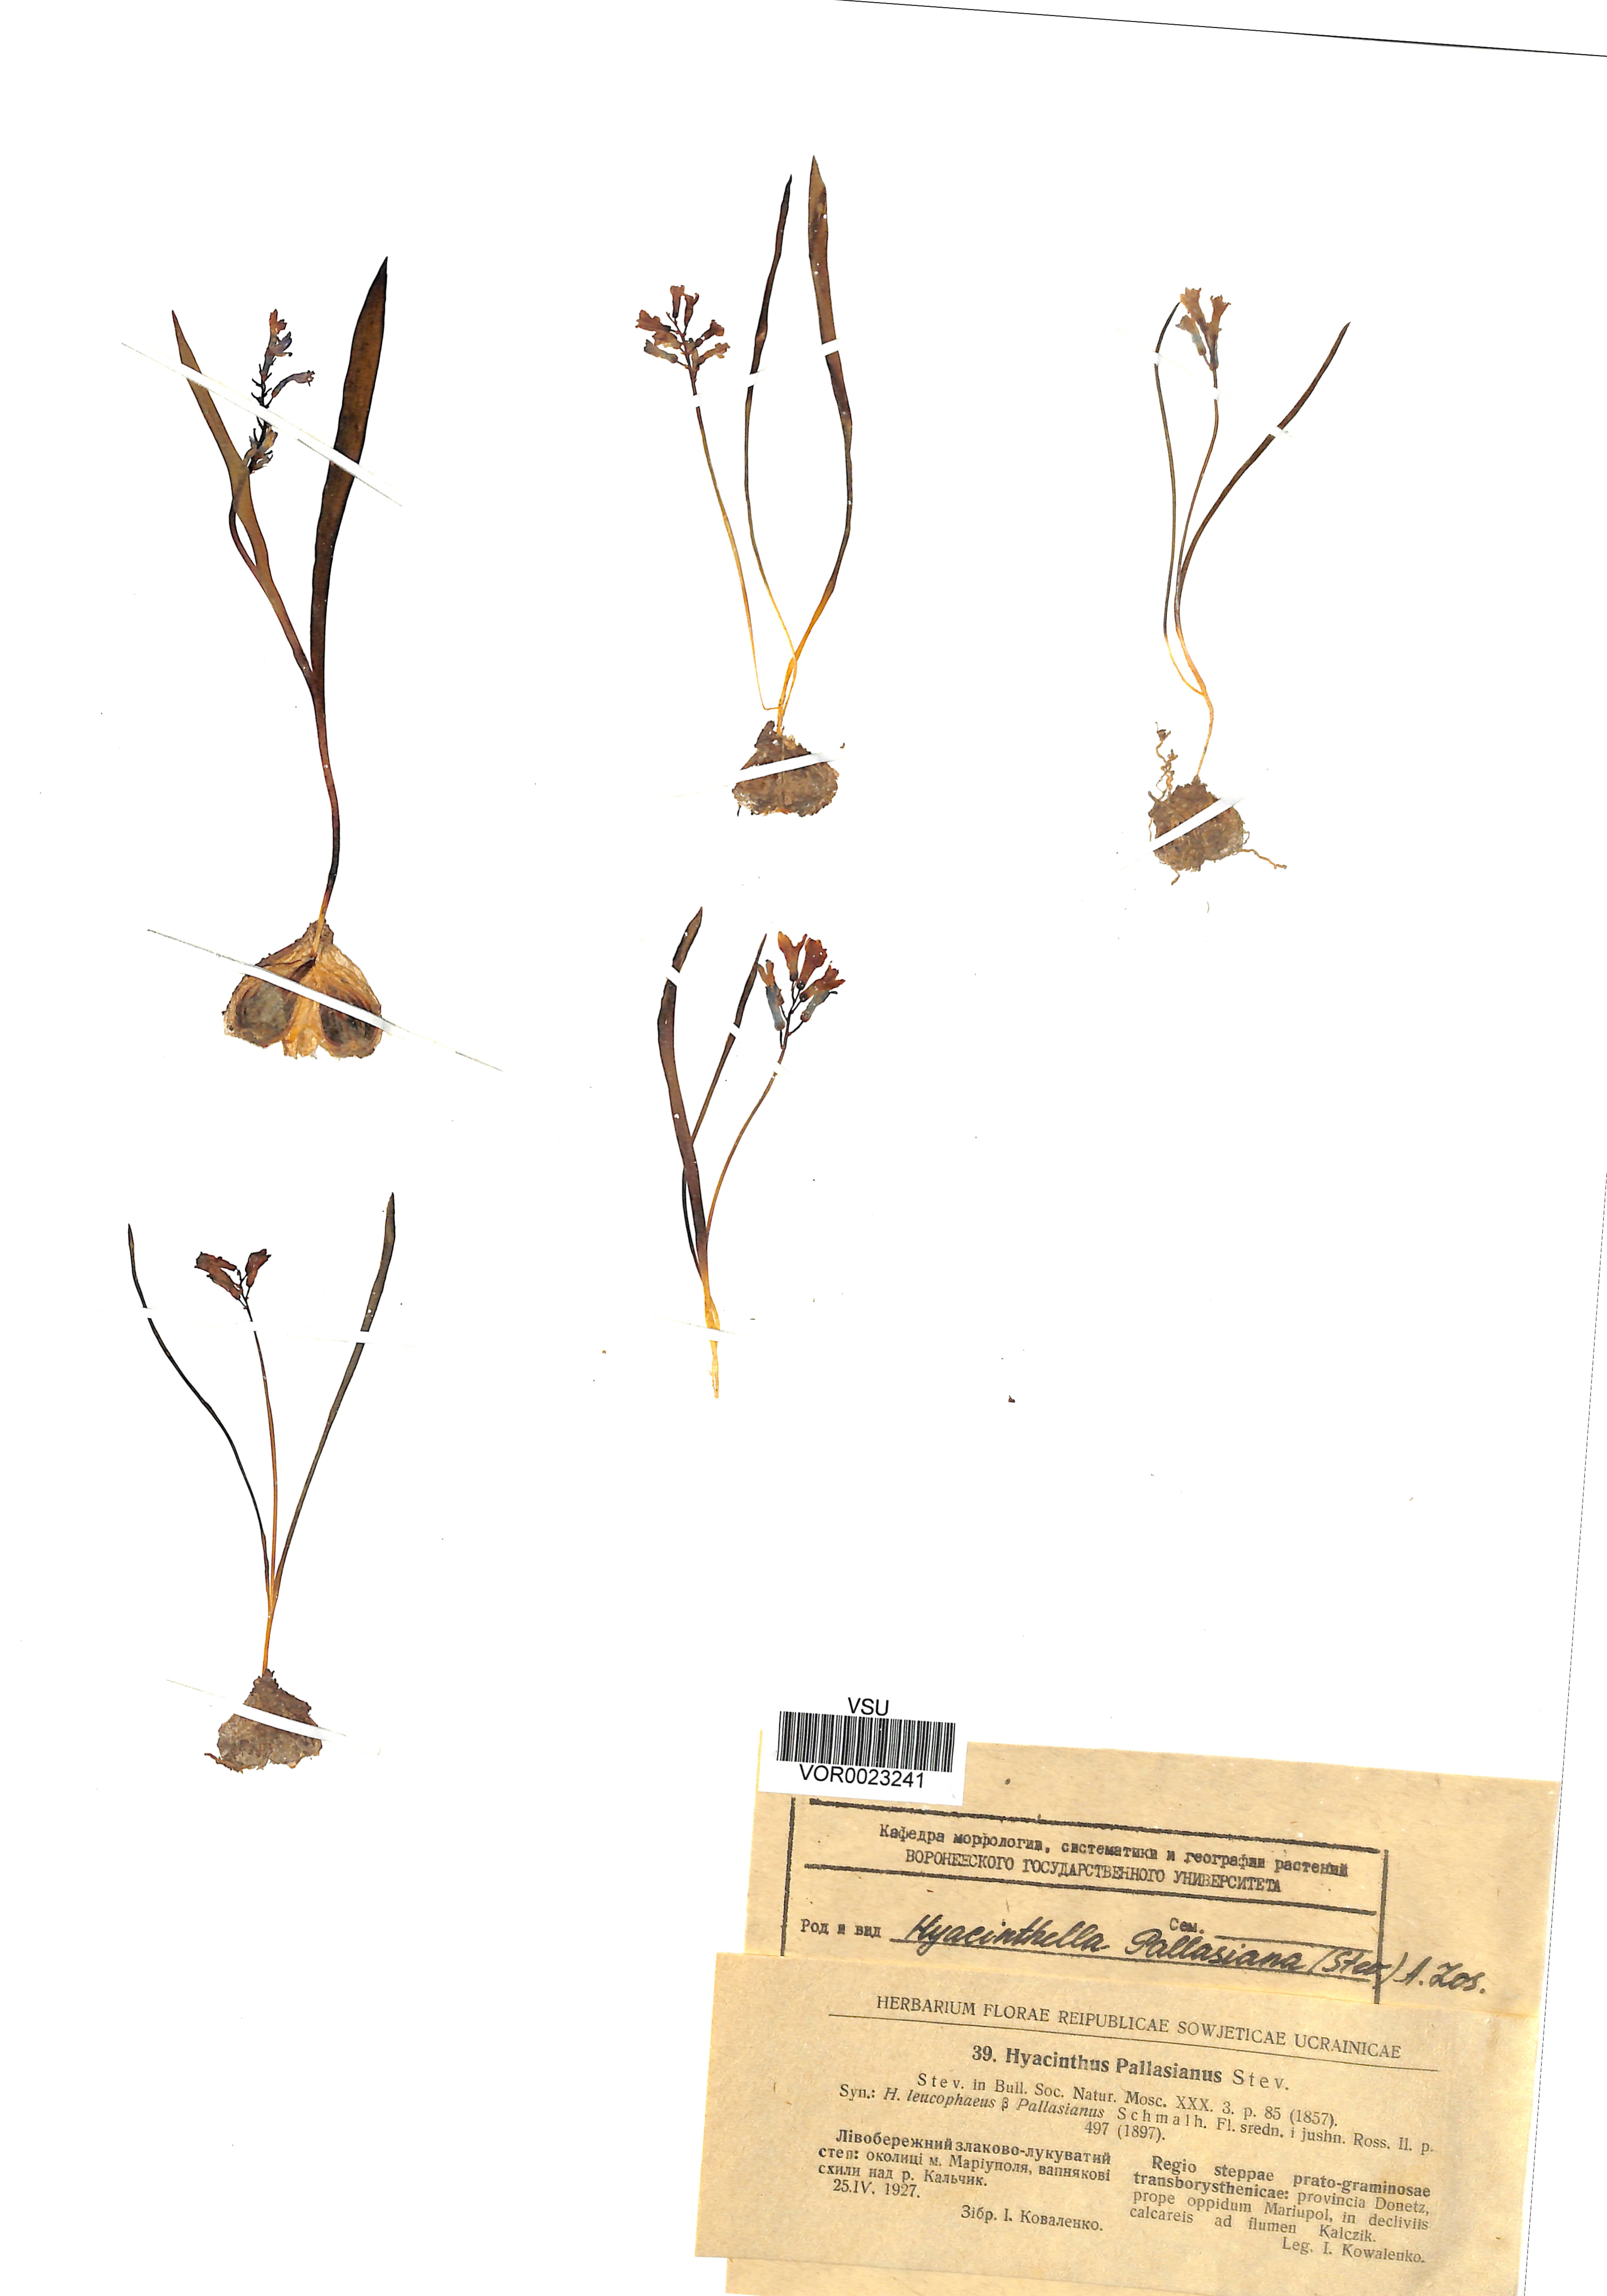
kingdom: Plantae
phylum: Tracheophyta
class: Liliopsida
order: Asparagales
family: Asparagaceae
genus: Hyacinthella
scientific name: Hyacinthella pallasiana
